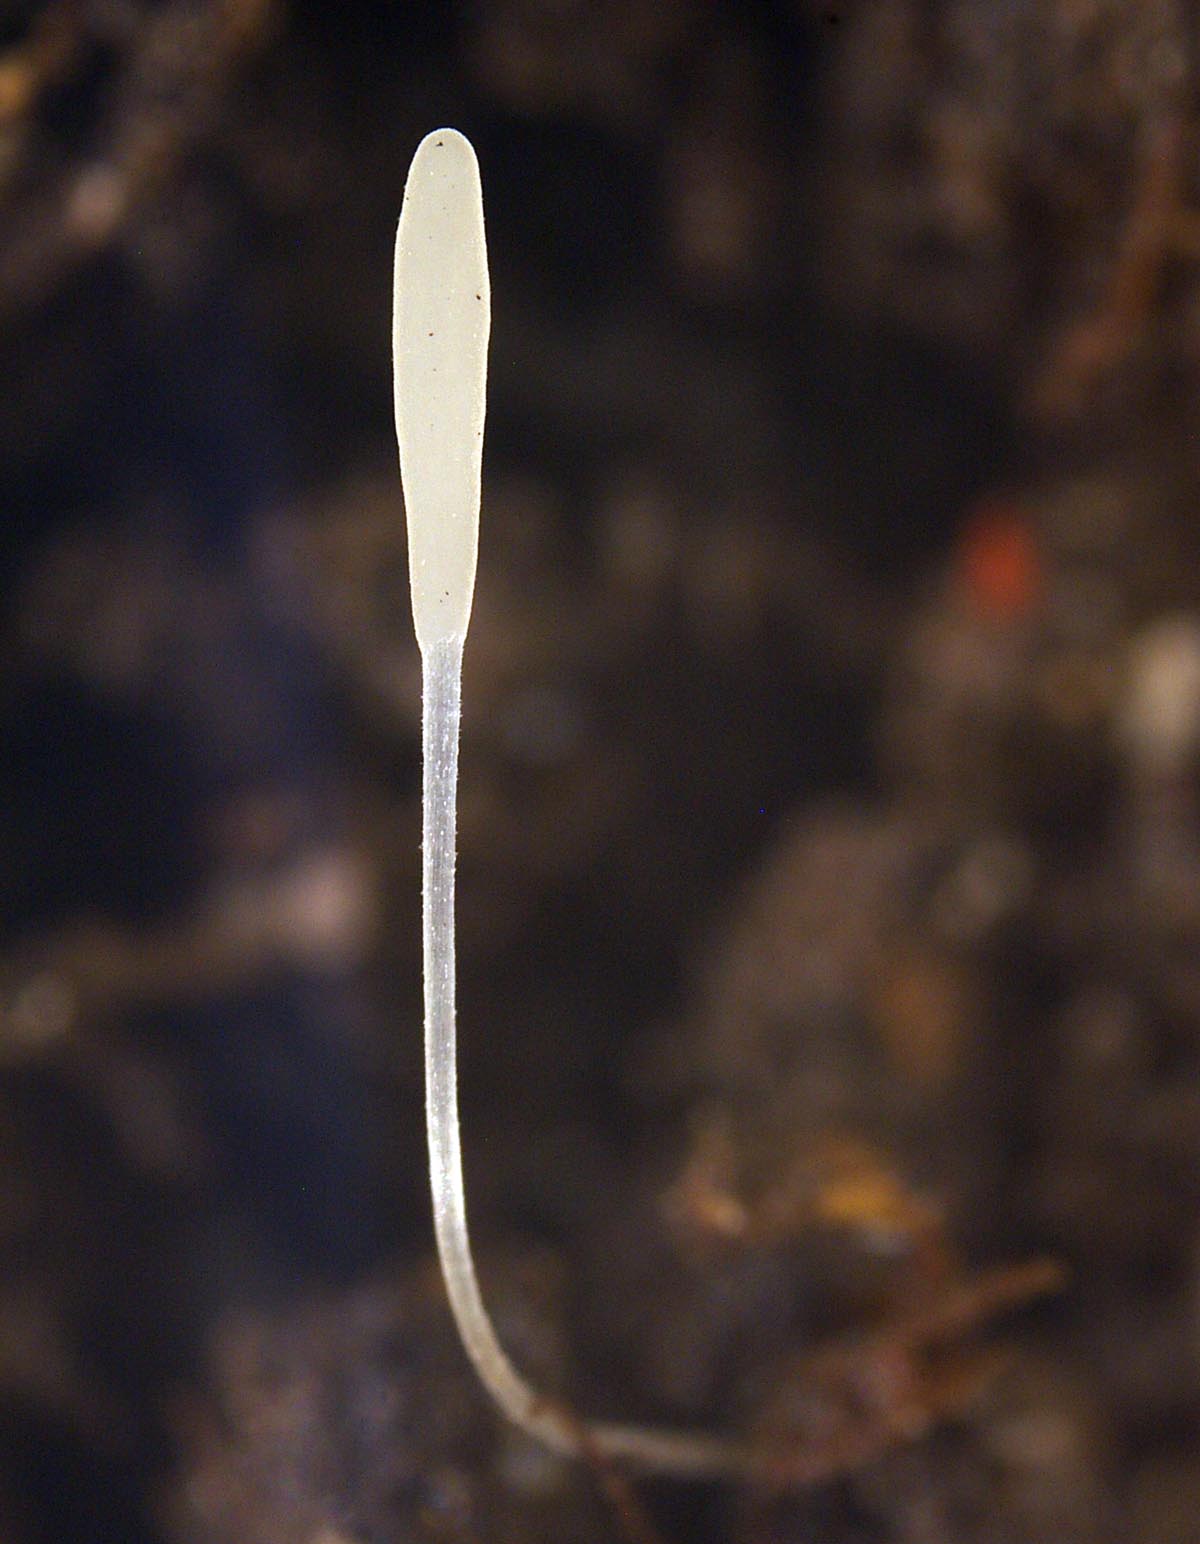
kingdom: Fungi
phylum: Basidiomycota
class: Agaricomycetes
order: Agaricales
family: Typhulaceae
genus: Typhula
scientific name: Typhula
